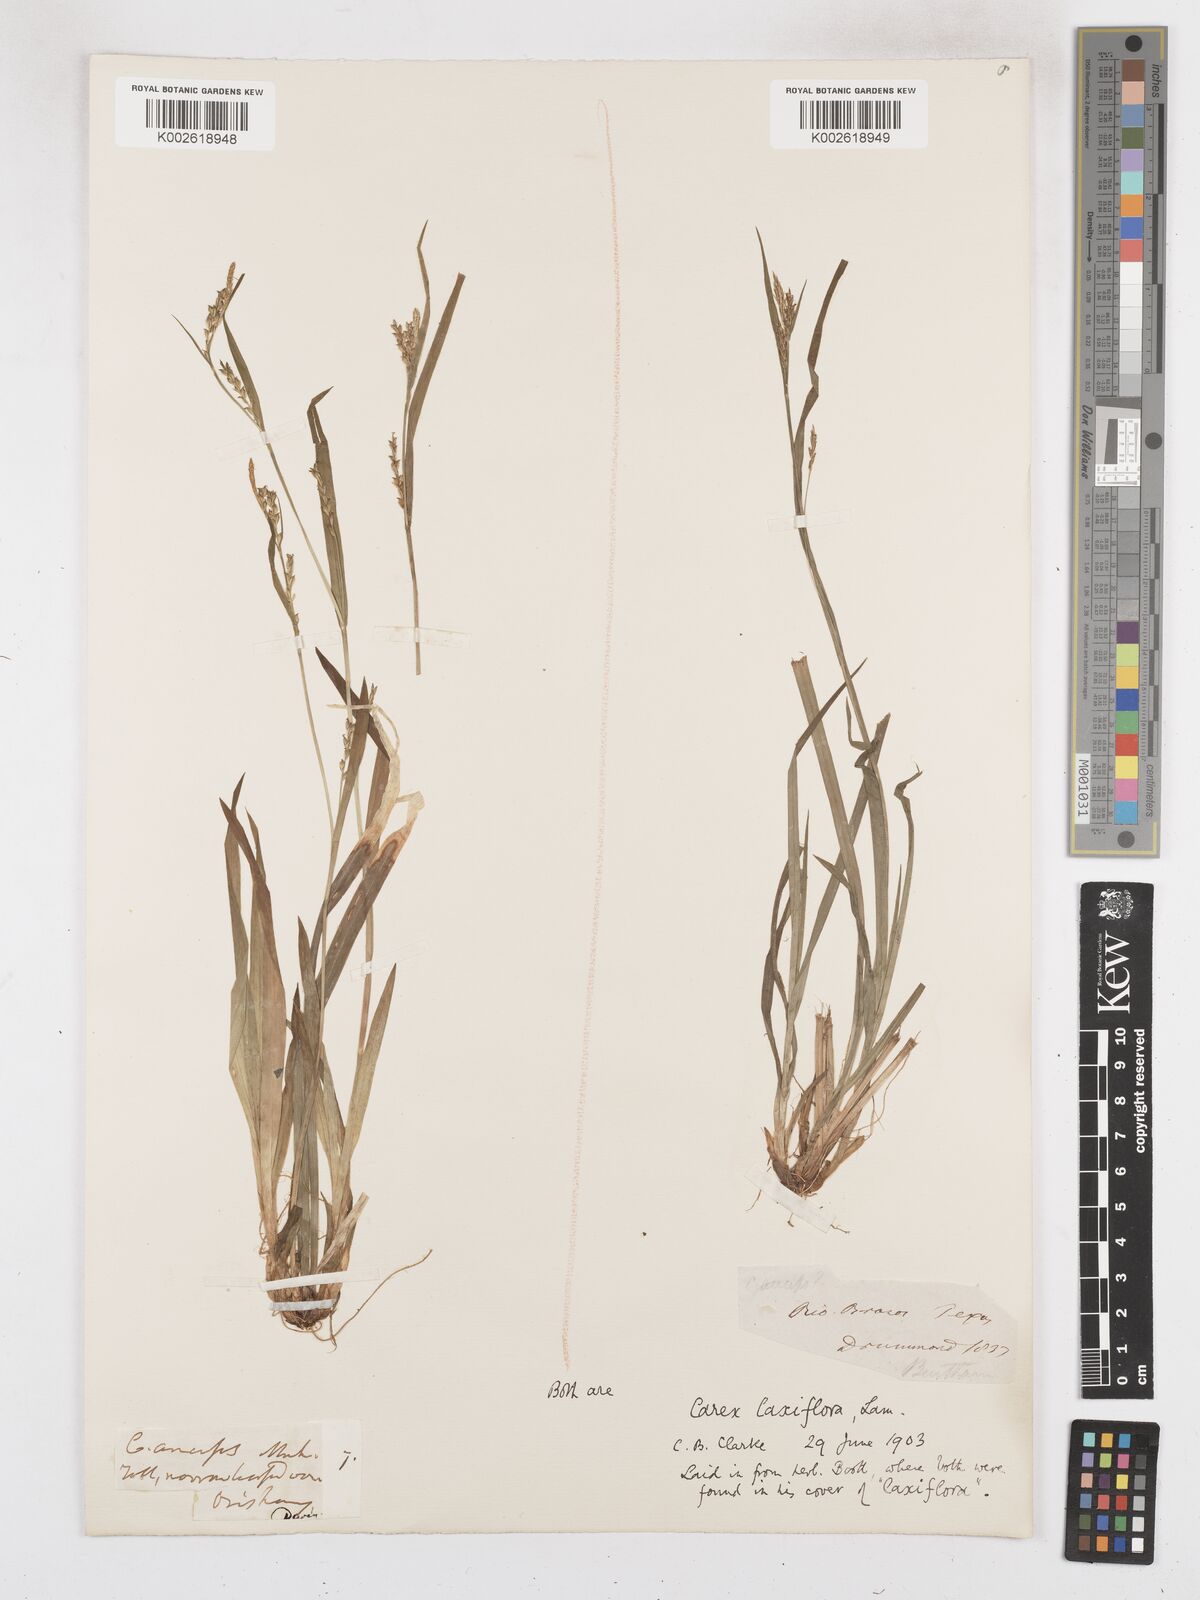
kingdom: Plantae
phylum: Tracheophyta
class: Liliopsida
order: Poales
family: Cyperaceae
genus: Carex
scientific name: Carex laxiflora
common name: Beech wood sedge
